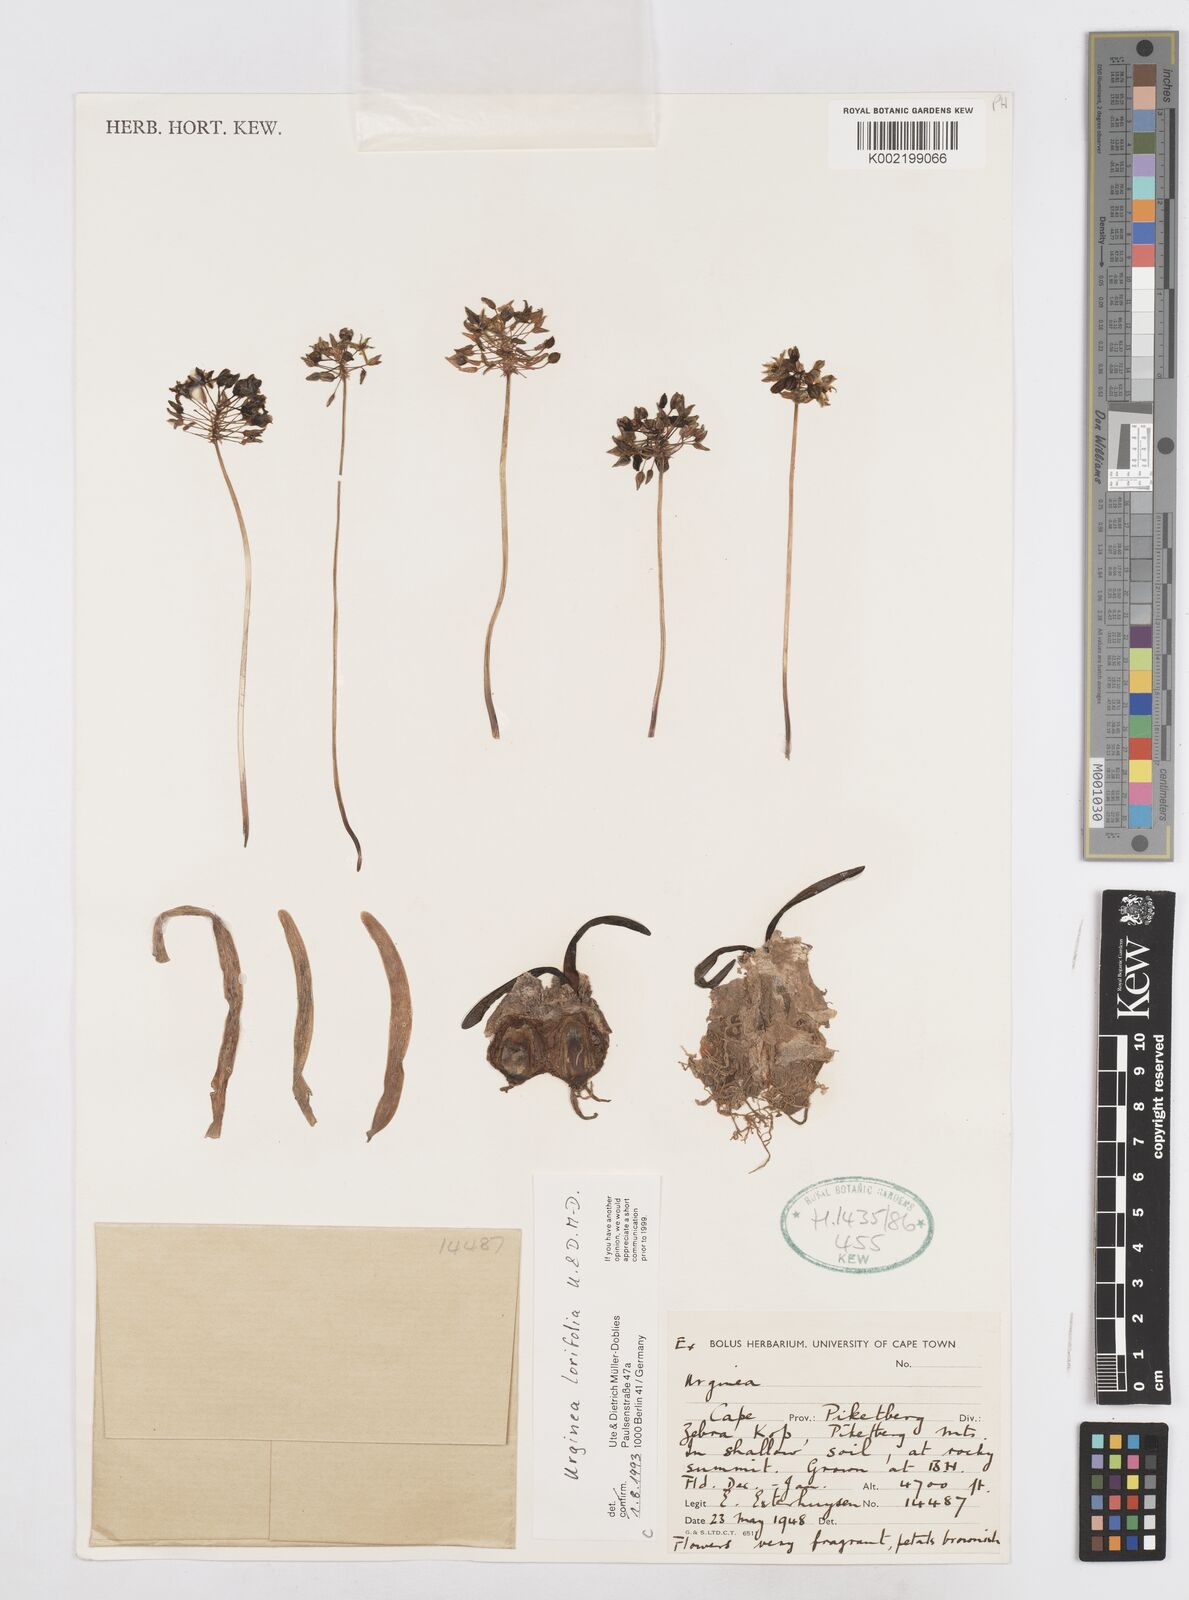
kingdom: Plantae
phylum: Tracheophyta
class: Liliopsida
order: Asparagales
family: Asparagaceae
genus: Drimia
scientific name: Drimia
